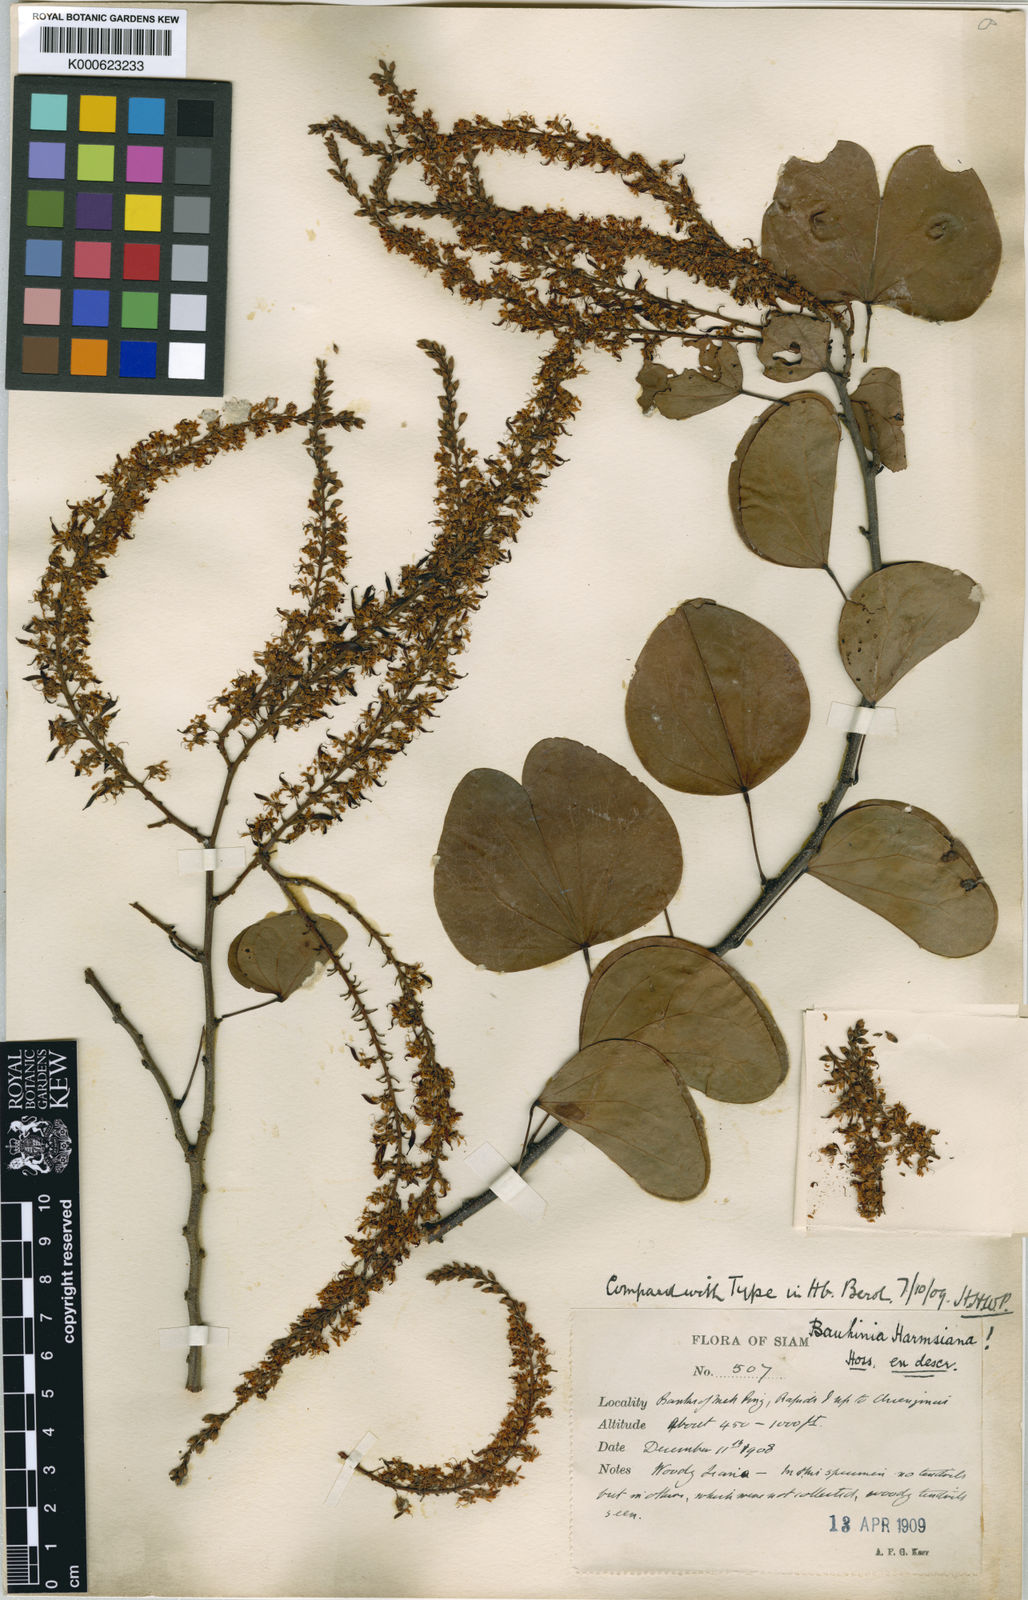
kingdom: Plantae
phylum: Tracheophyta
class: Magnoliopsida
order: Fabales
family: Fabaceae
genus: Phanera
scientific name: Phanera harmsiana
